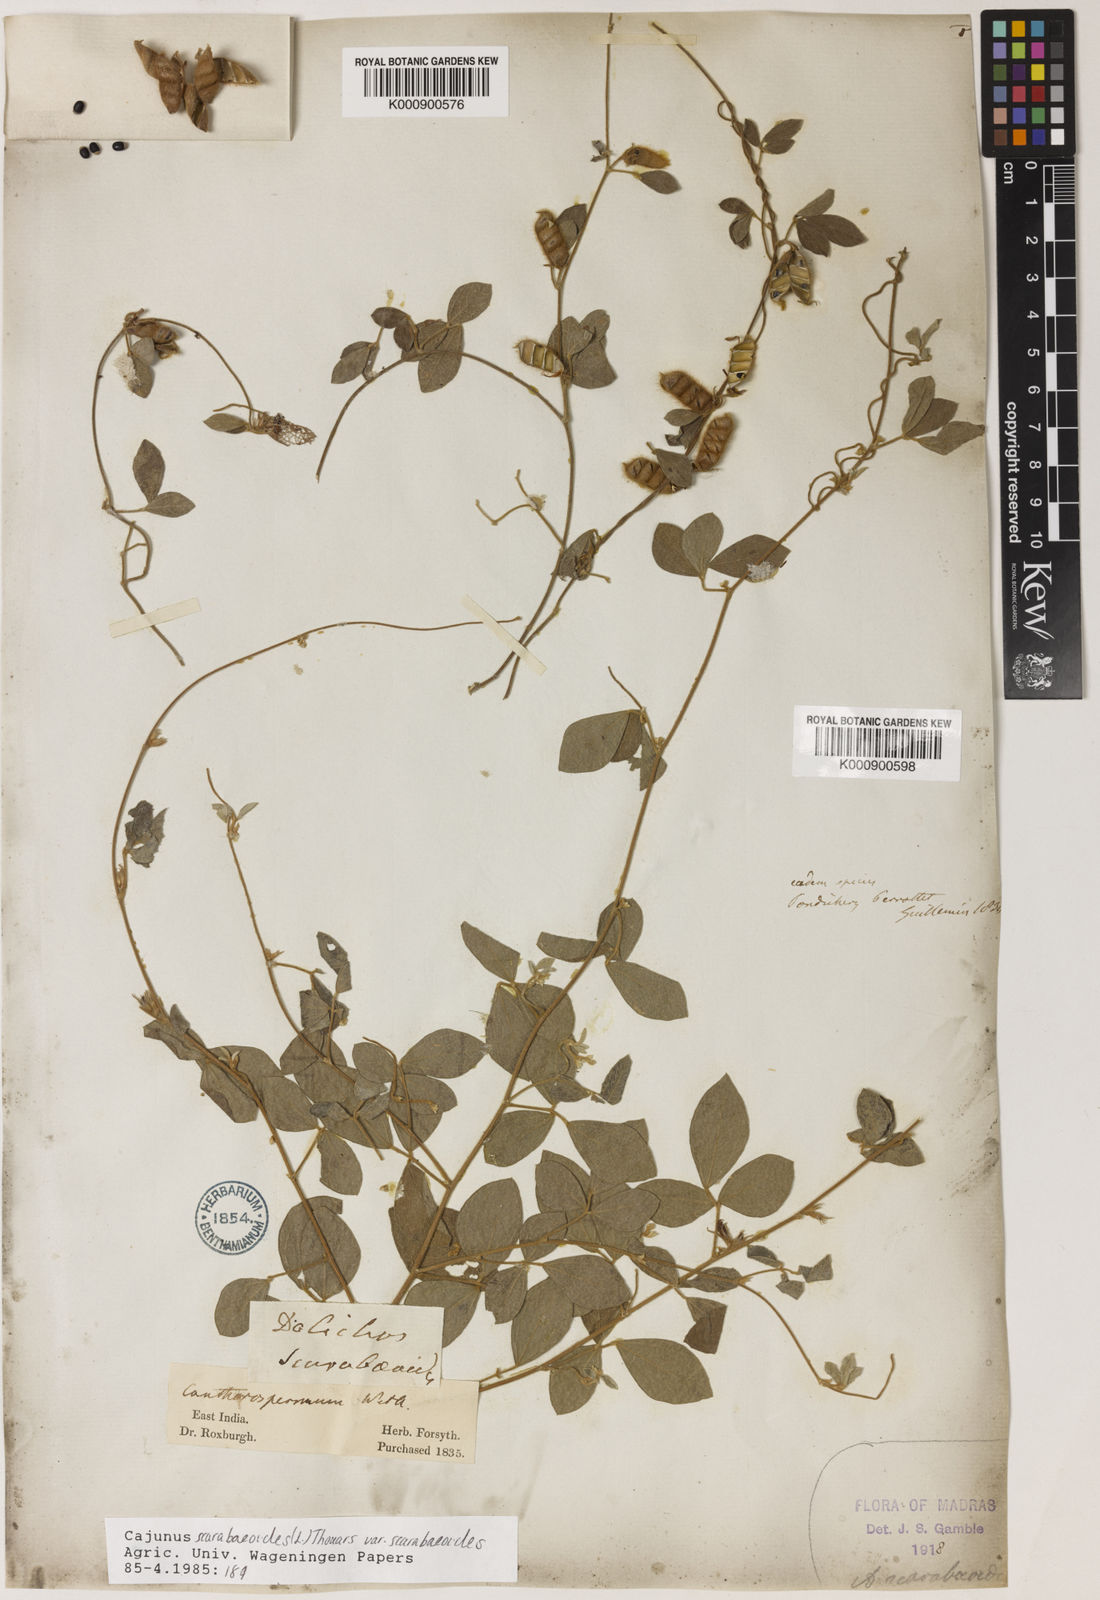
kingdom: Plantae
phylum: Tracheophyta
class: Magnoliopsida
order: Fabales
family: Fabaceae
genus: Cajanus
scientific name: Cajanus scarabaeoides
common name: Showy pigeonpea
